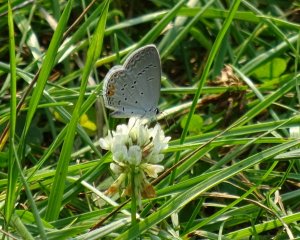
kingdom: Animalia
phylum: Arthropoda
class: Insecta
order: Lepidoptera
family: Lycaenidae
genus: Elkalyce
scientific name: Elkalyce comyntas
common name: Eastern Tailed-Blue
